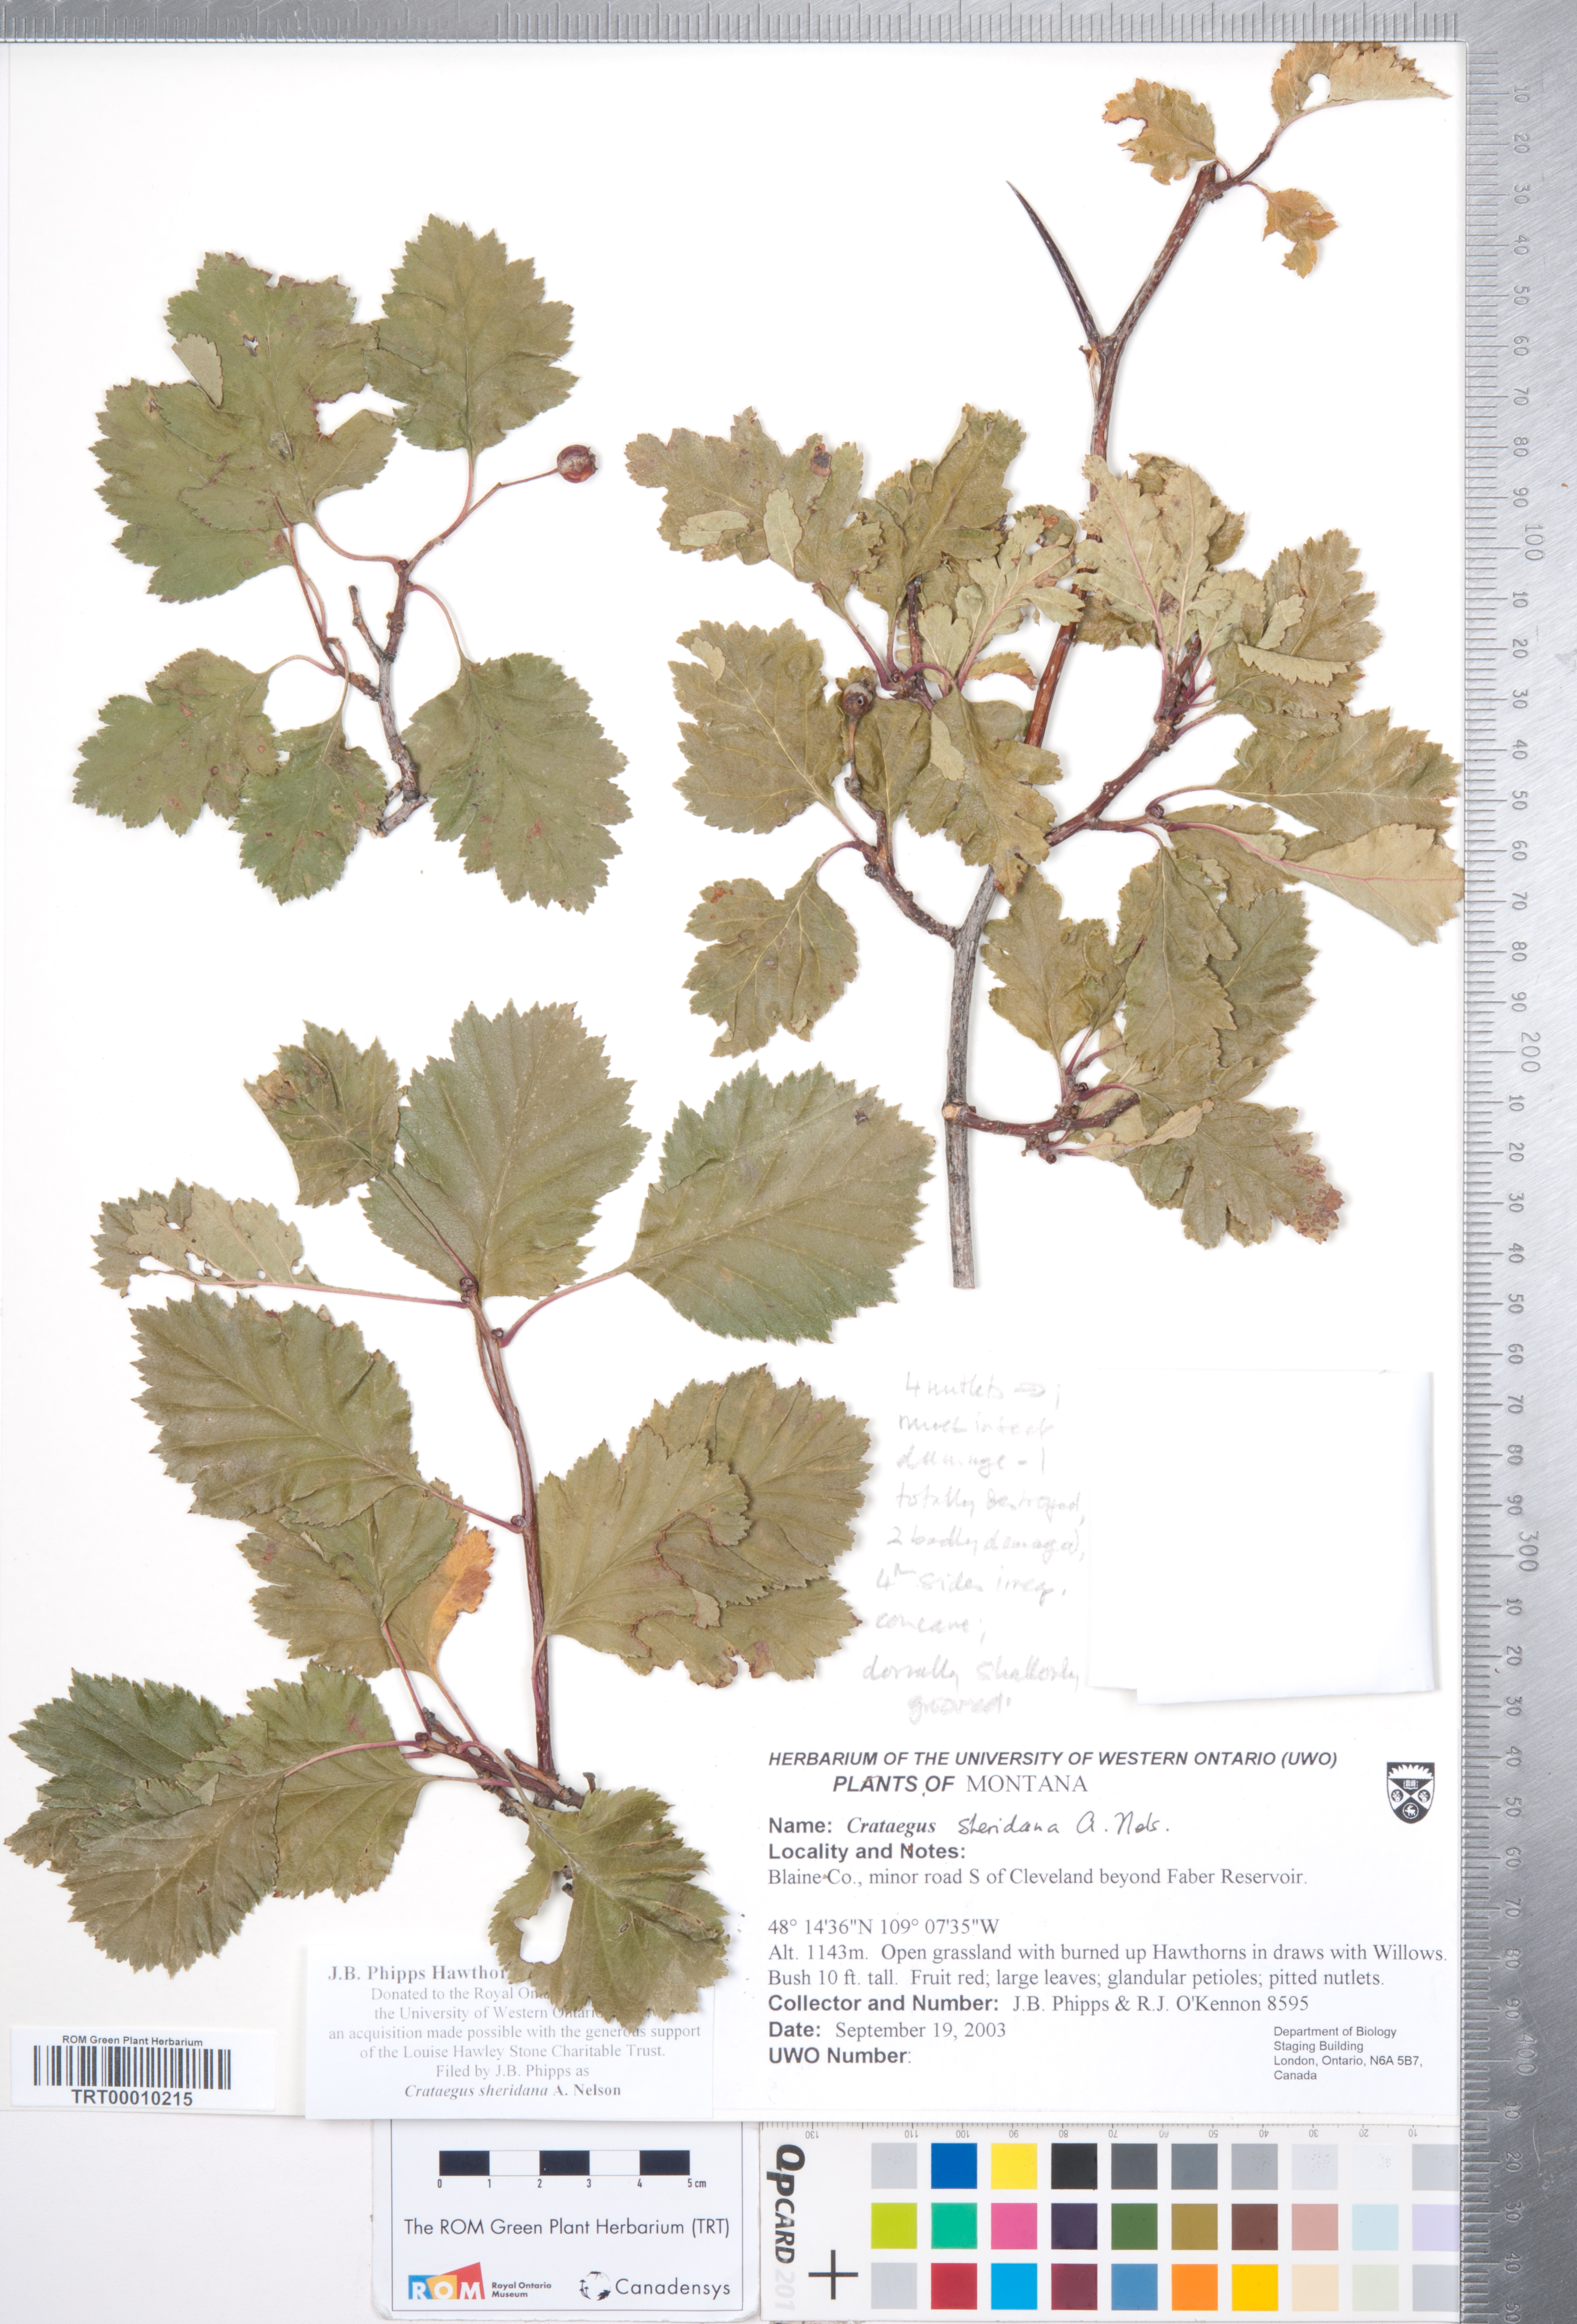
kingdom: Plantae
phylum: Tracheophyta
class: Magnoliopsida
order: Rosales
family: Rosaceae
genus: Crataegus
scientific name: Crataegus chrysocarpa
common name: Fire-berry hawthorn
